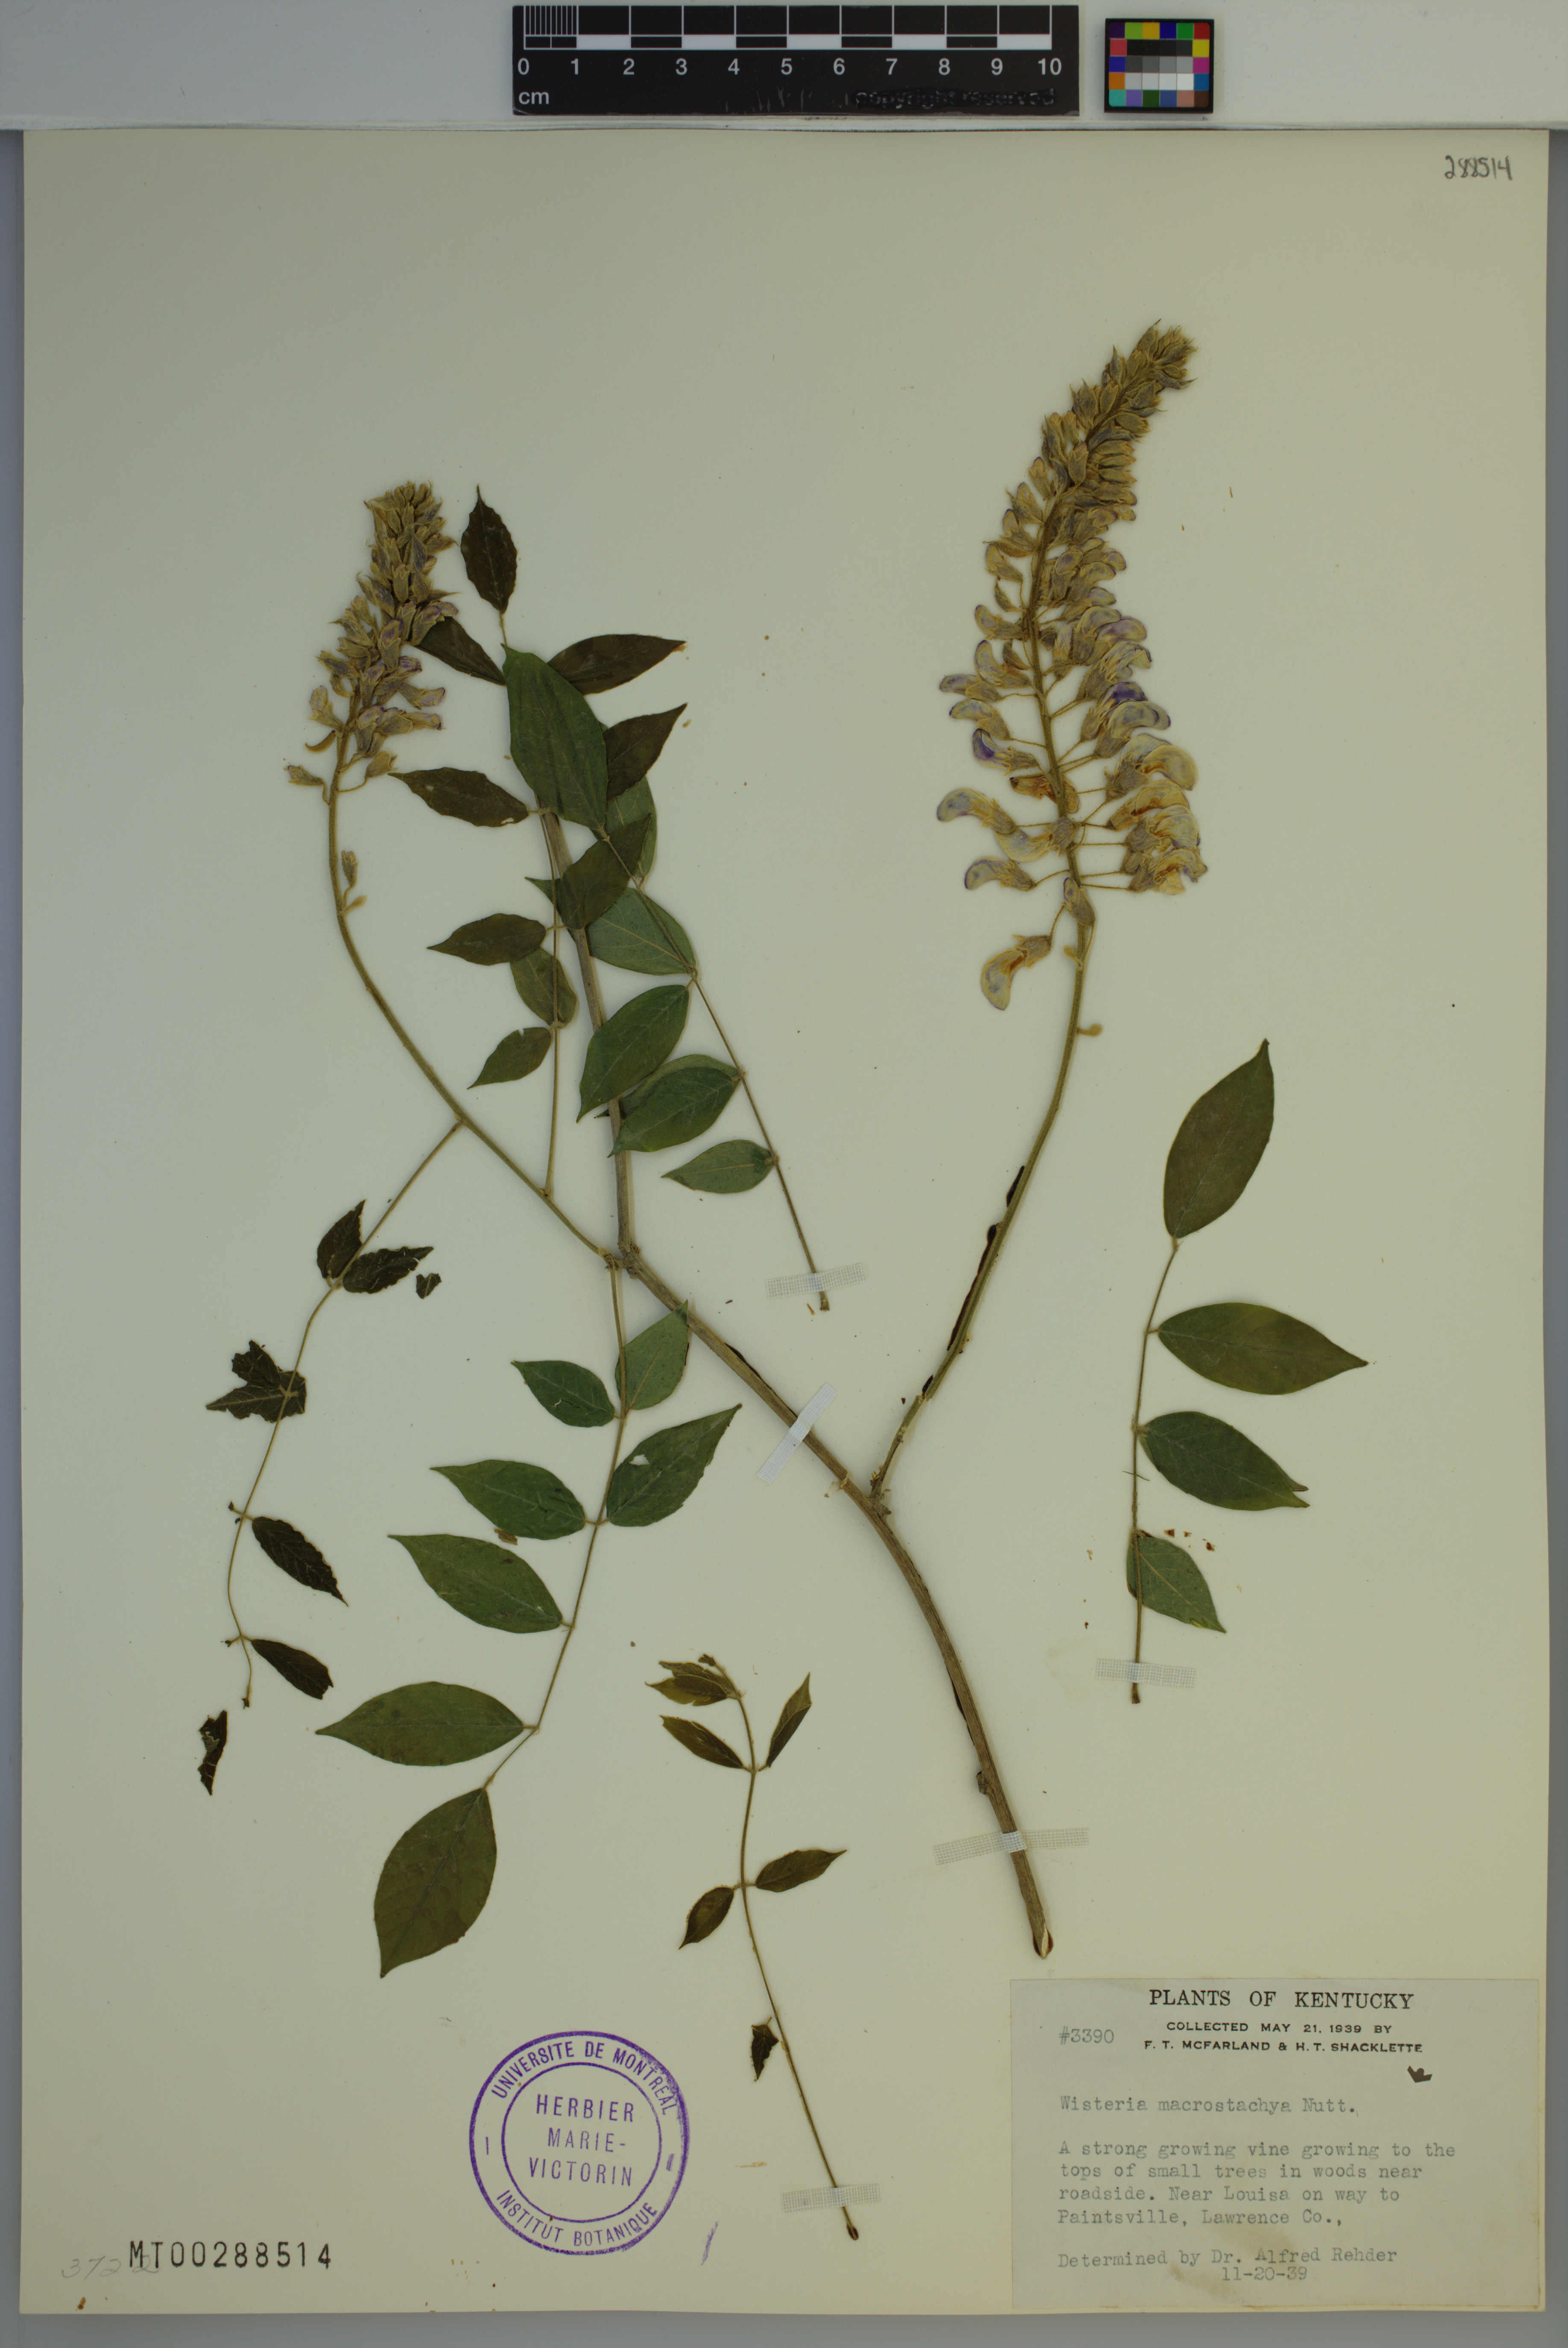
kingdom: Plantae
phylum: Tracheophyta
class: Magnoliopsida
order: Fabales
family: Fabaceae
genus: Wisteria
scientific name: Wisteria frutescens
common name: American wisteria
